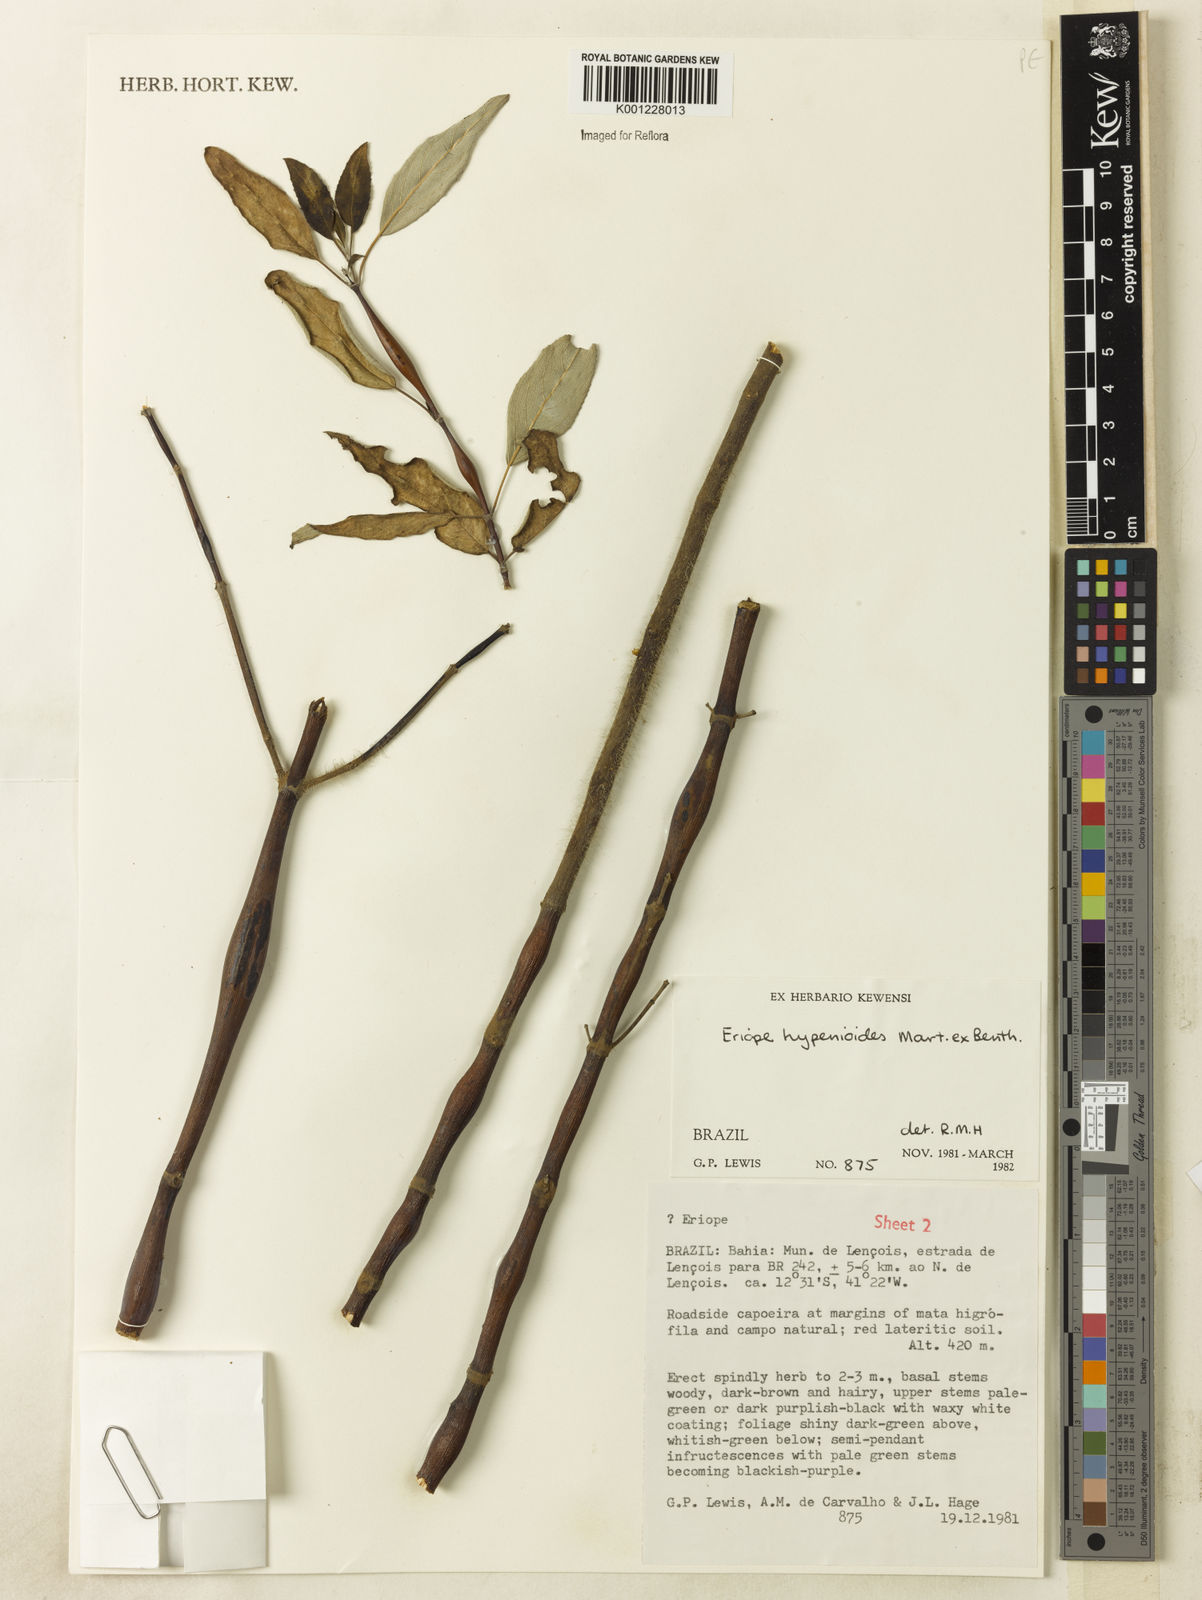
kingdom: Plantae
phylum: Tracheophyta
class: Magnoliopsida
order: Lamiales
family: Lamiaceae
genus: Eriope
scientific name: Eriope hypenioides
